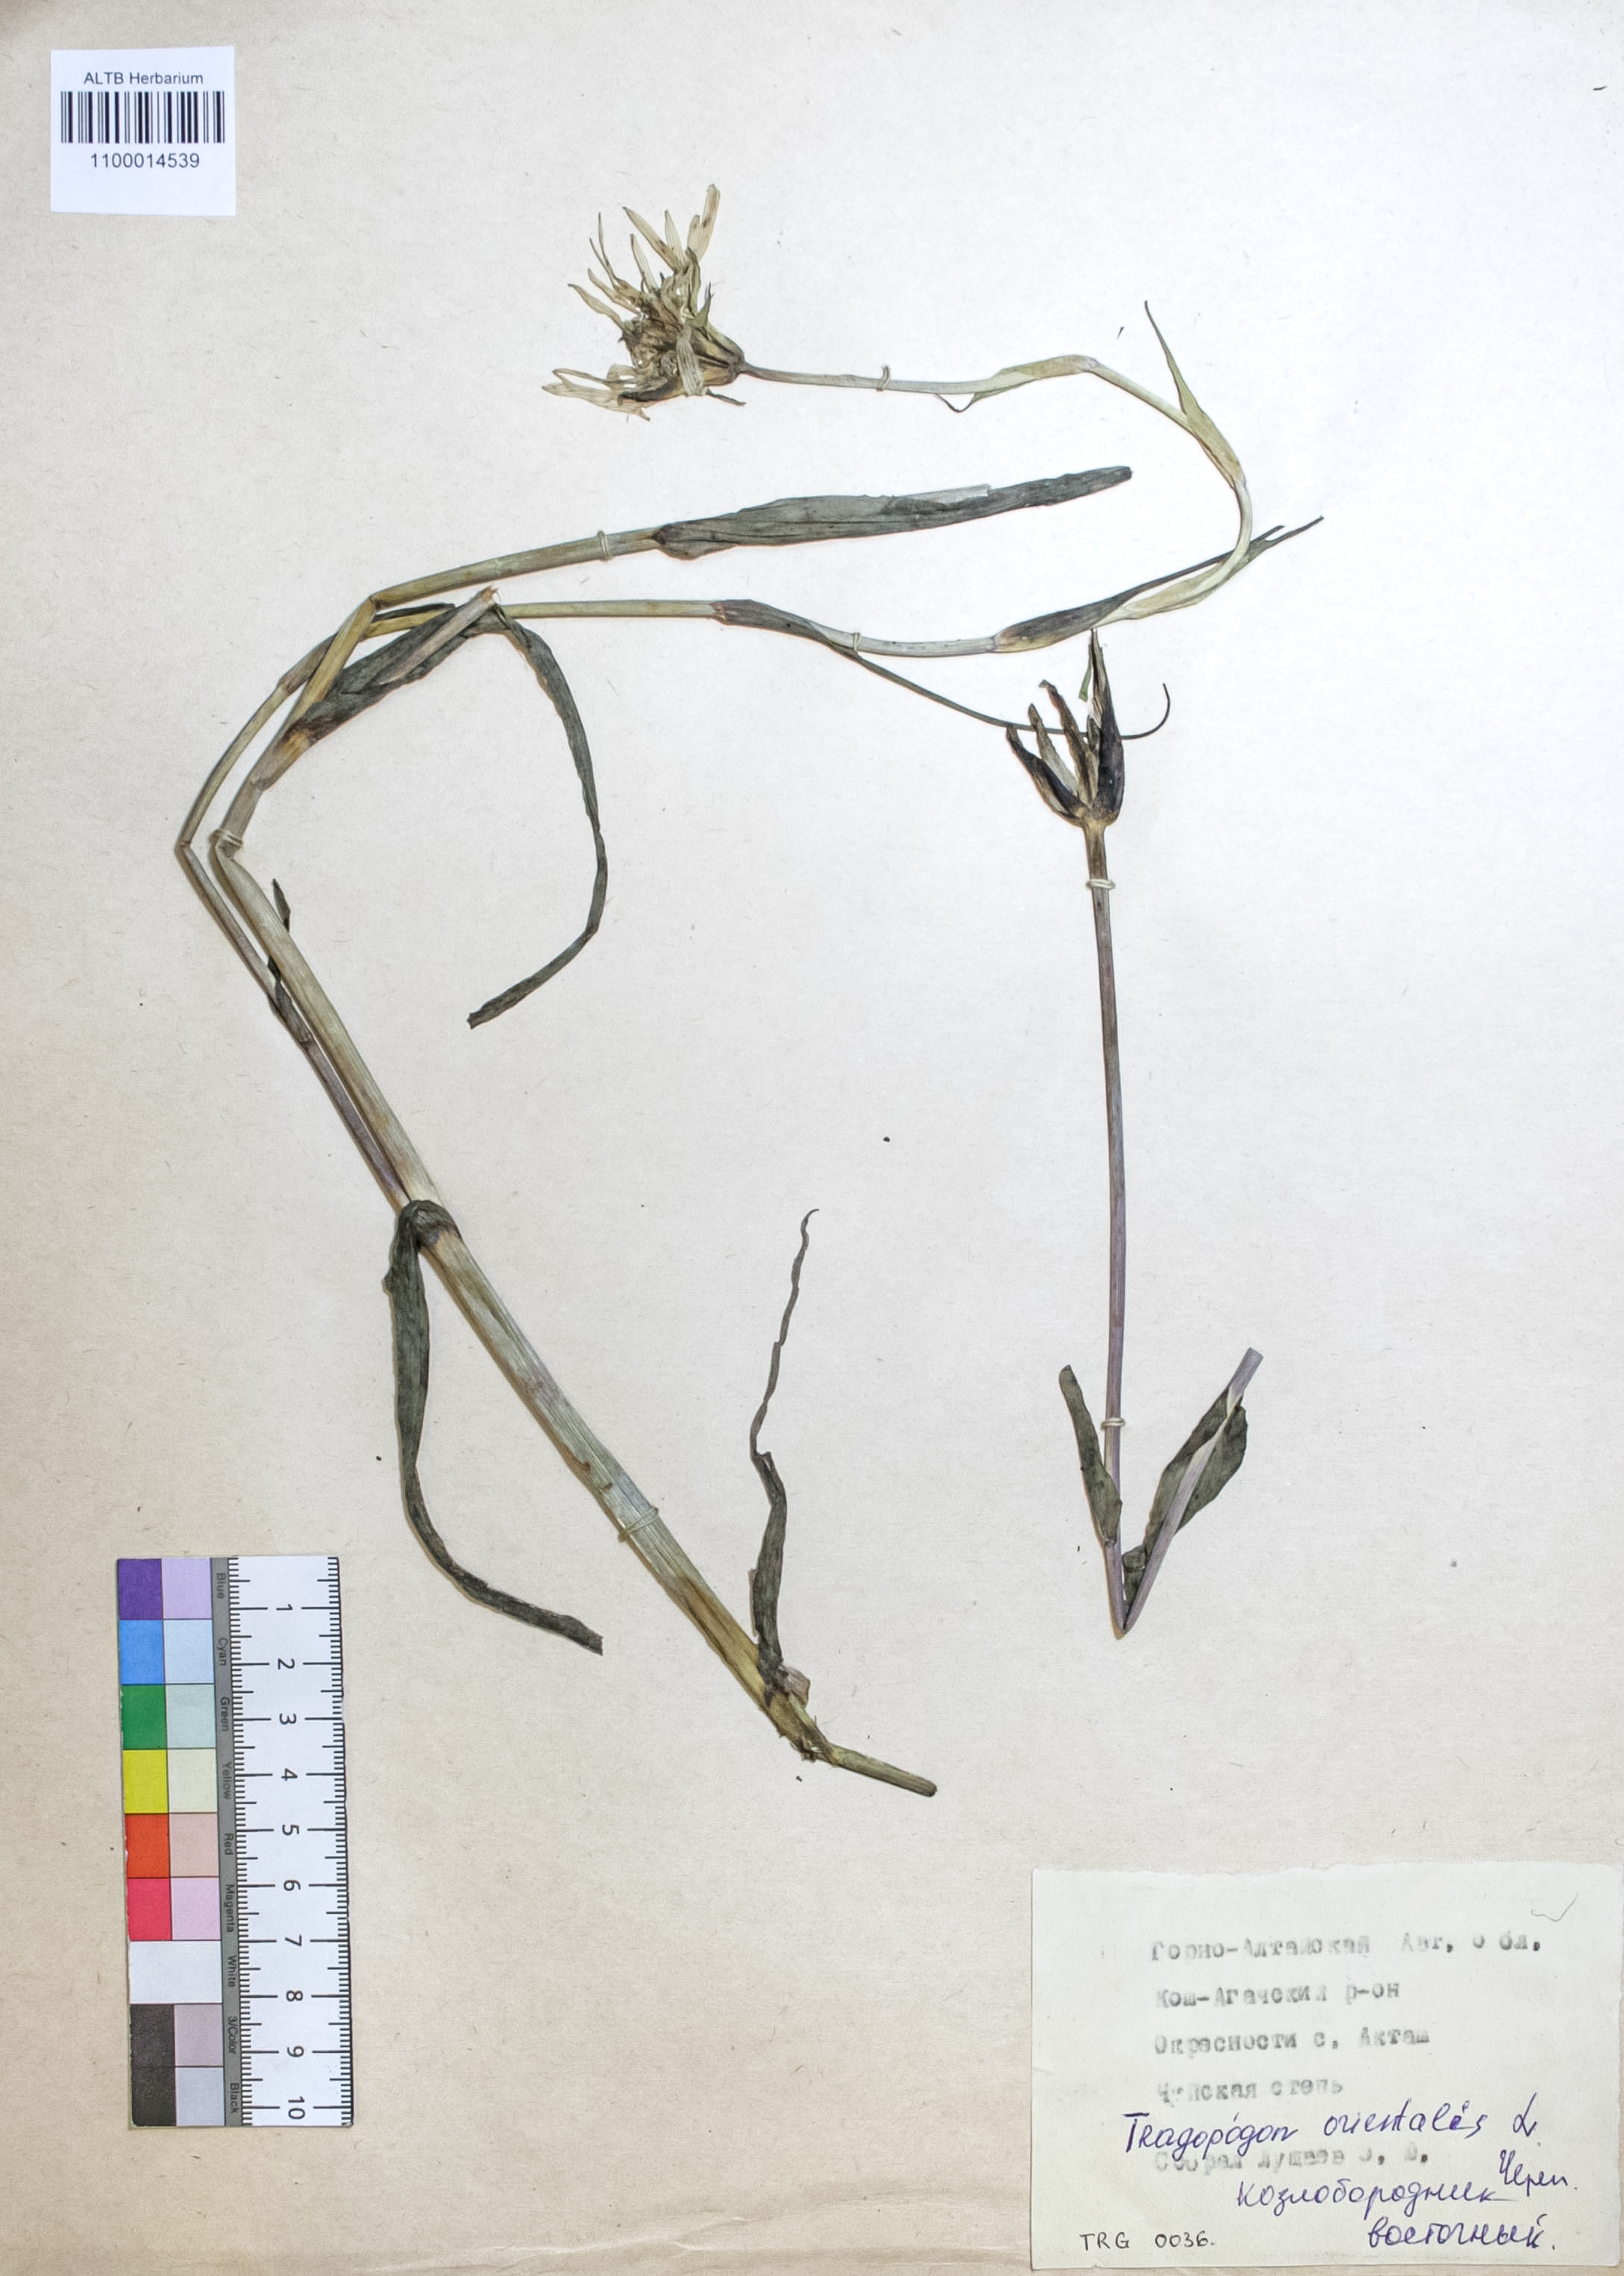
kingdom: Plantae
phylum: Tracheophyta
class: Magnoliopsida
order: Asterales
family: Asteraceae
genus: Tragopogon
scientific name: Tragopogon orientalis
